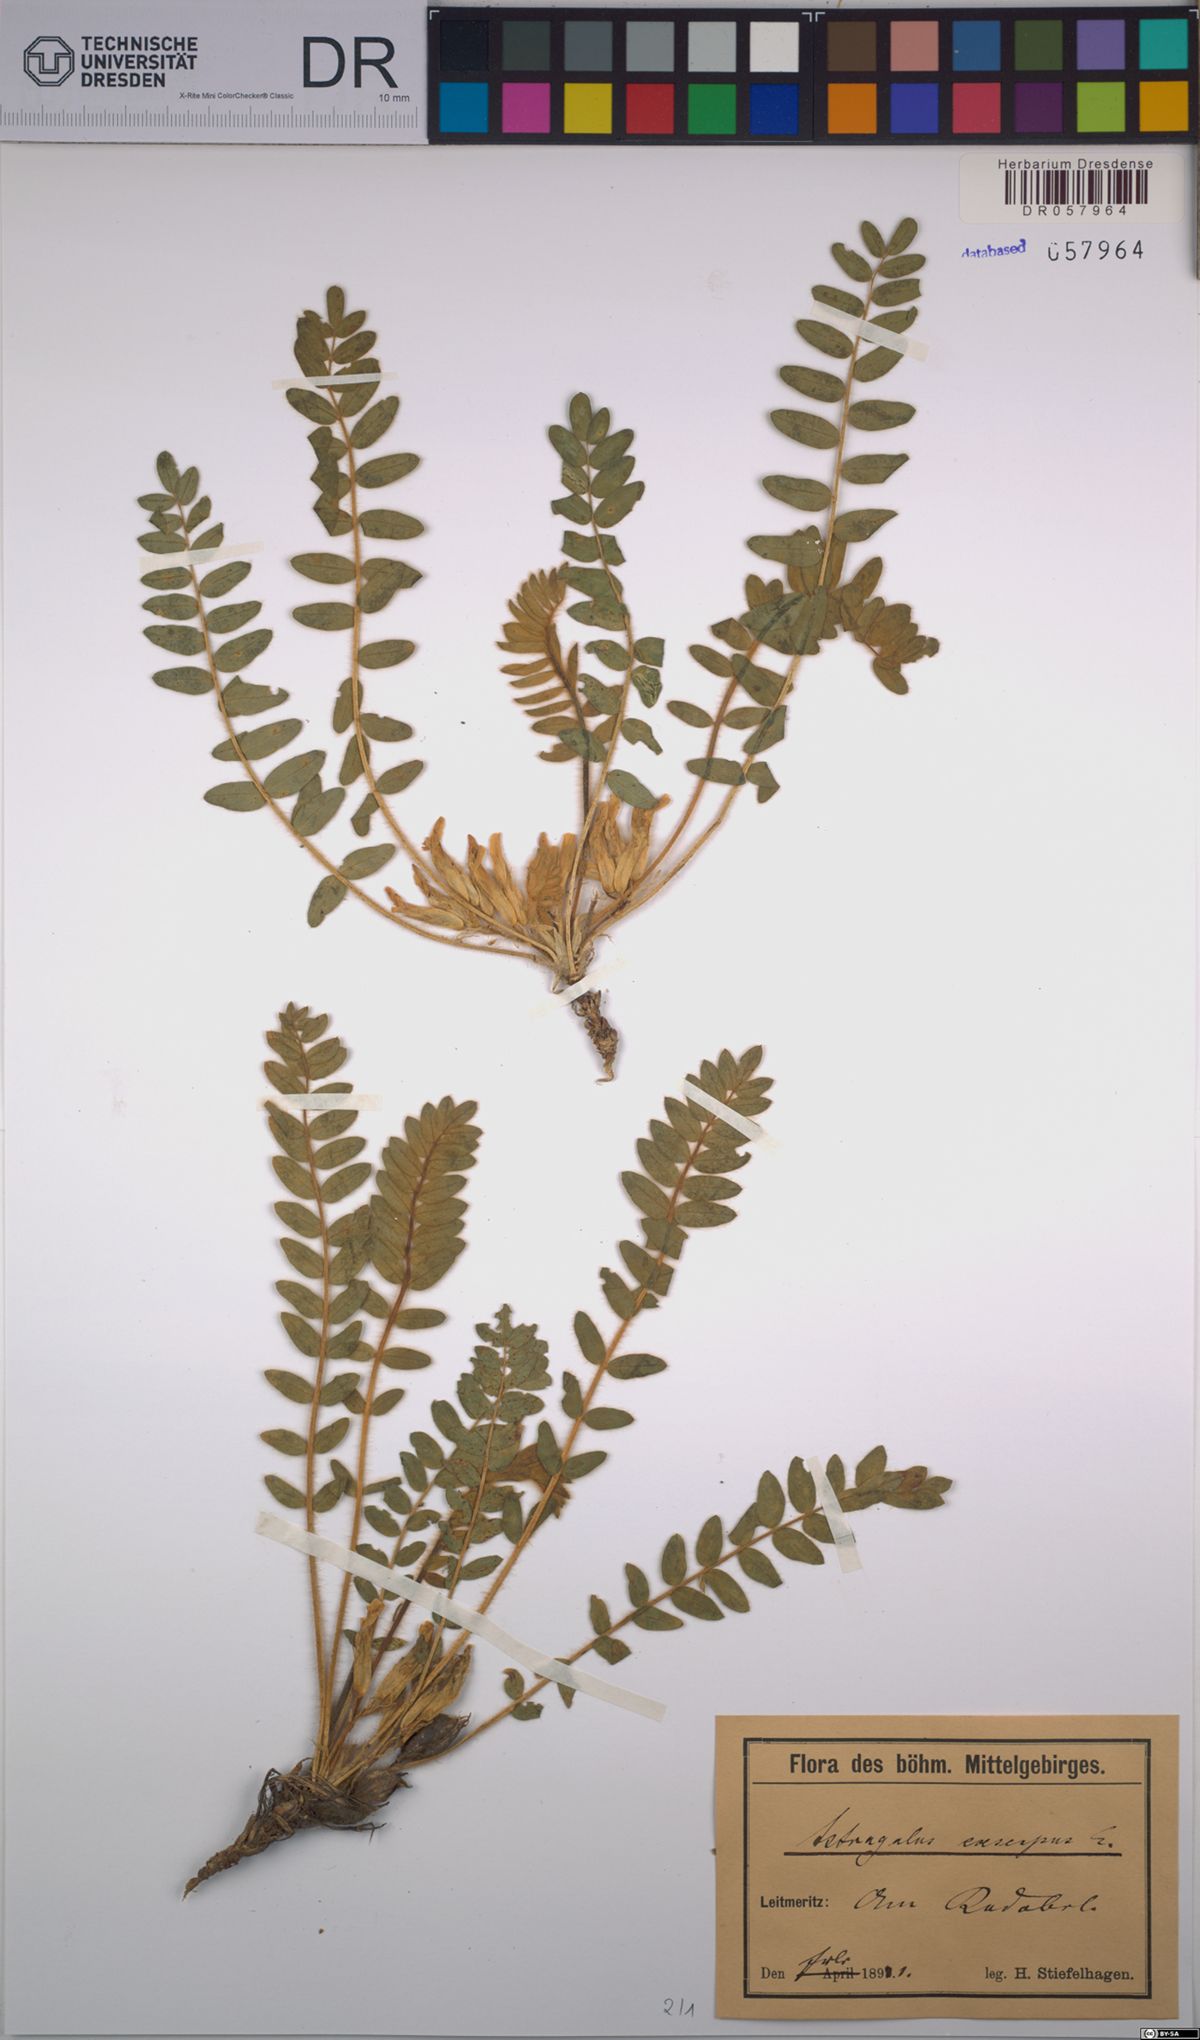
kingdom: Plantae
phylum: Tracheophyta
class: Magnoliopsida
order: Fabales
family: Fabaceae
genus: Astragalus
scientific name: Astragalus exscapus
